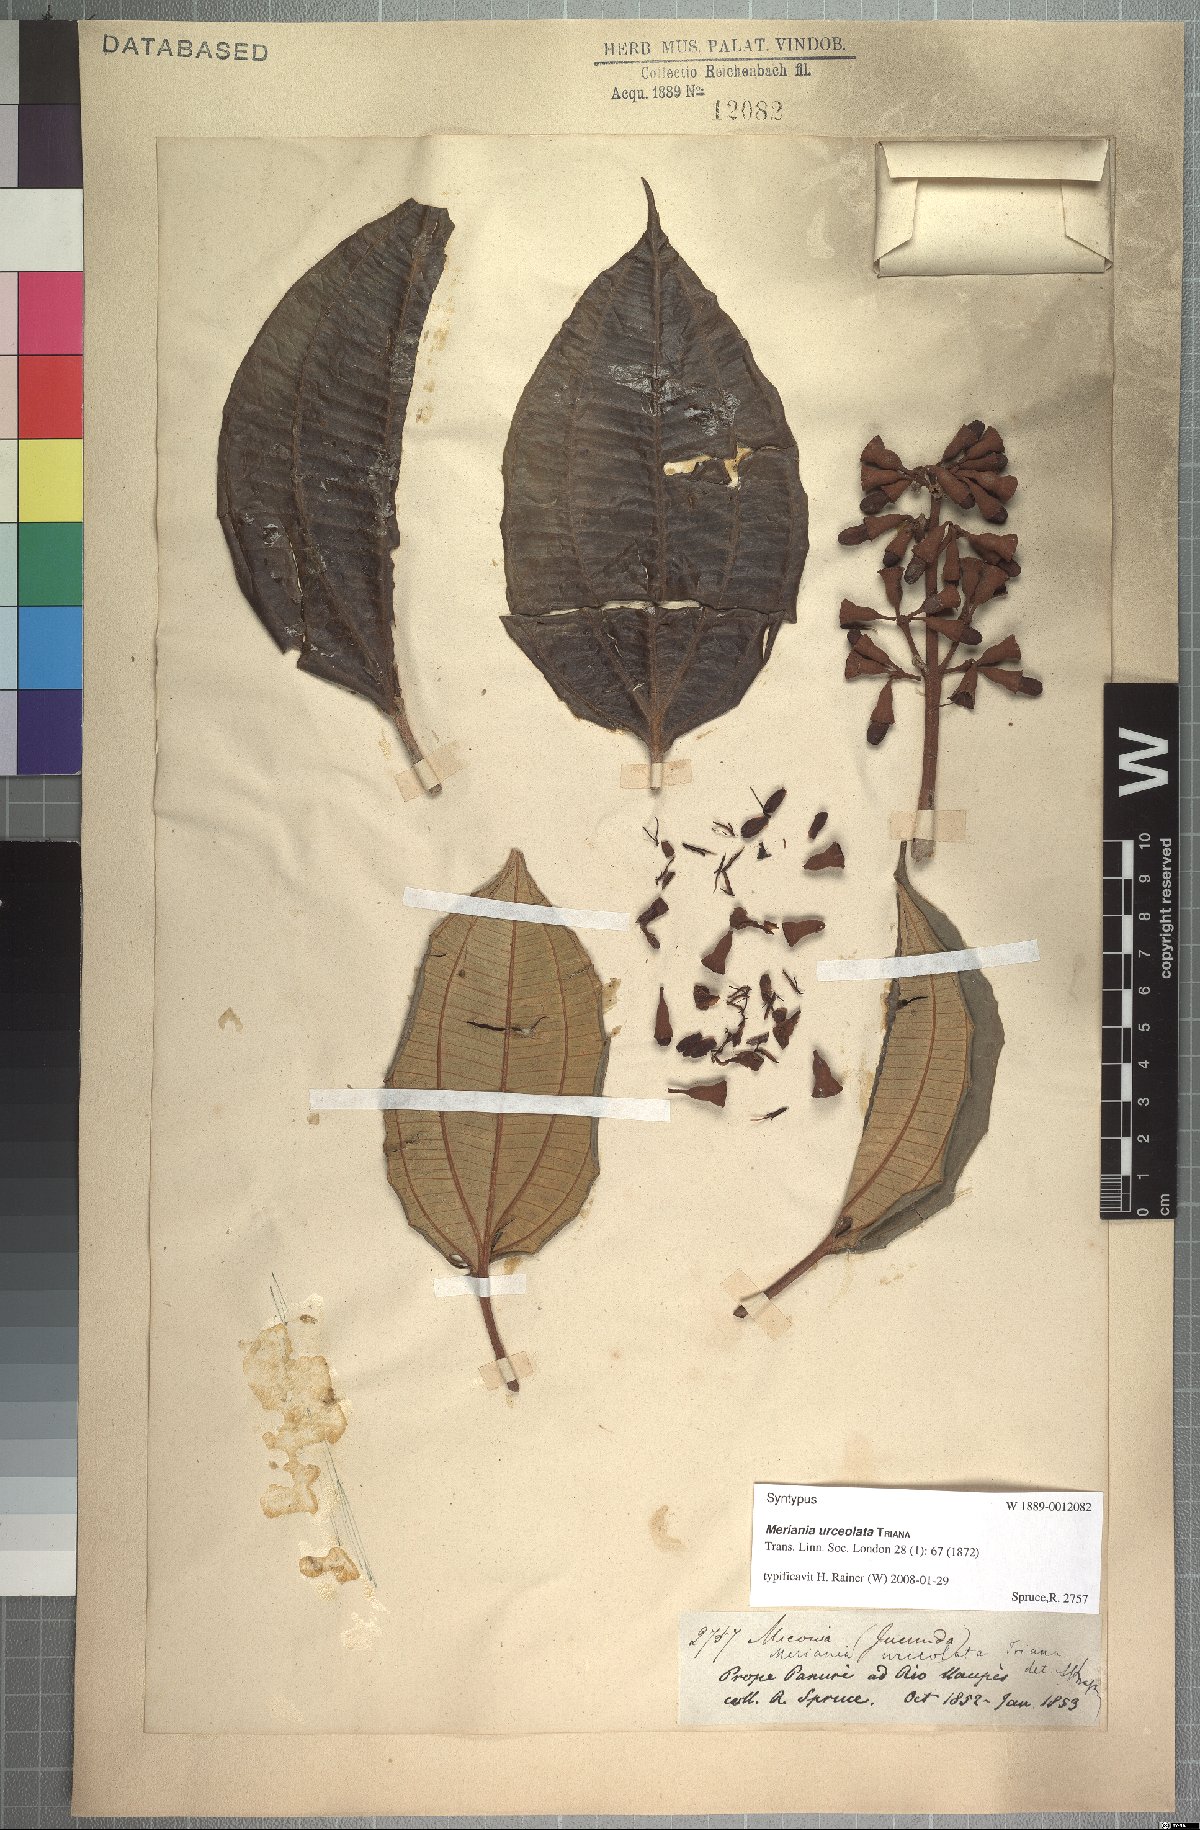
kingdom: Plantae
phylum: Tracheophyta
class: Magnoliopsida
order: Myrtales
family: Melastomataceae
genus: Meriania
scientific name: Meriania urceolata
